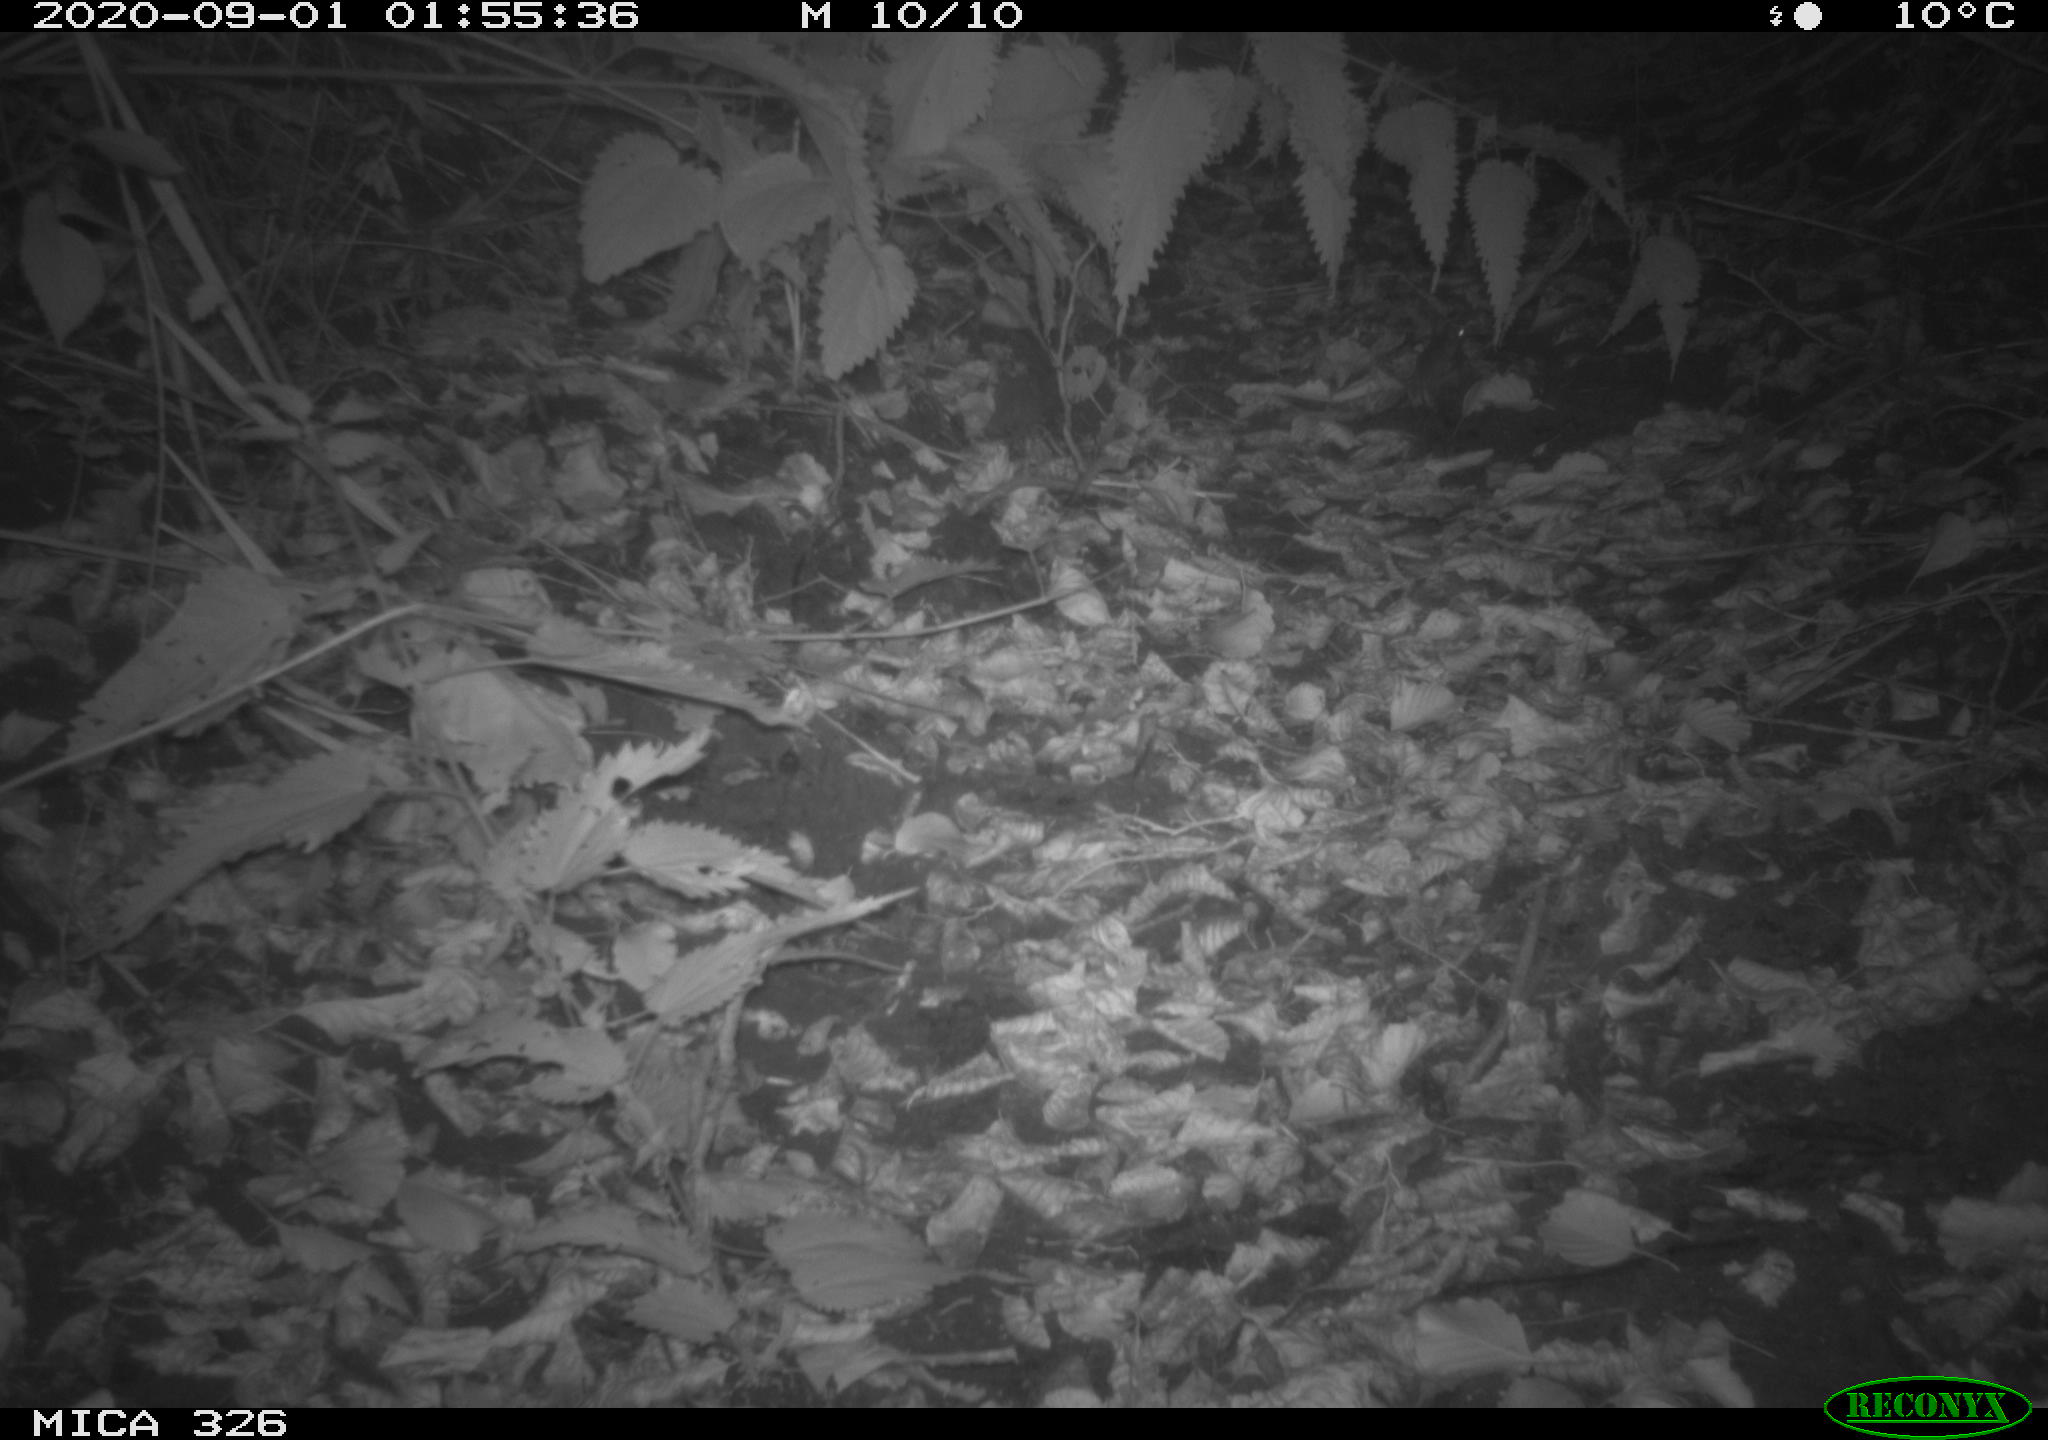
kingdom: Animalia
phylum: Chordata
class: Mammalia
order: Rodentia
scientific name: Rodentia
